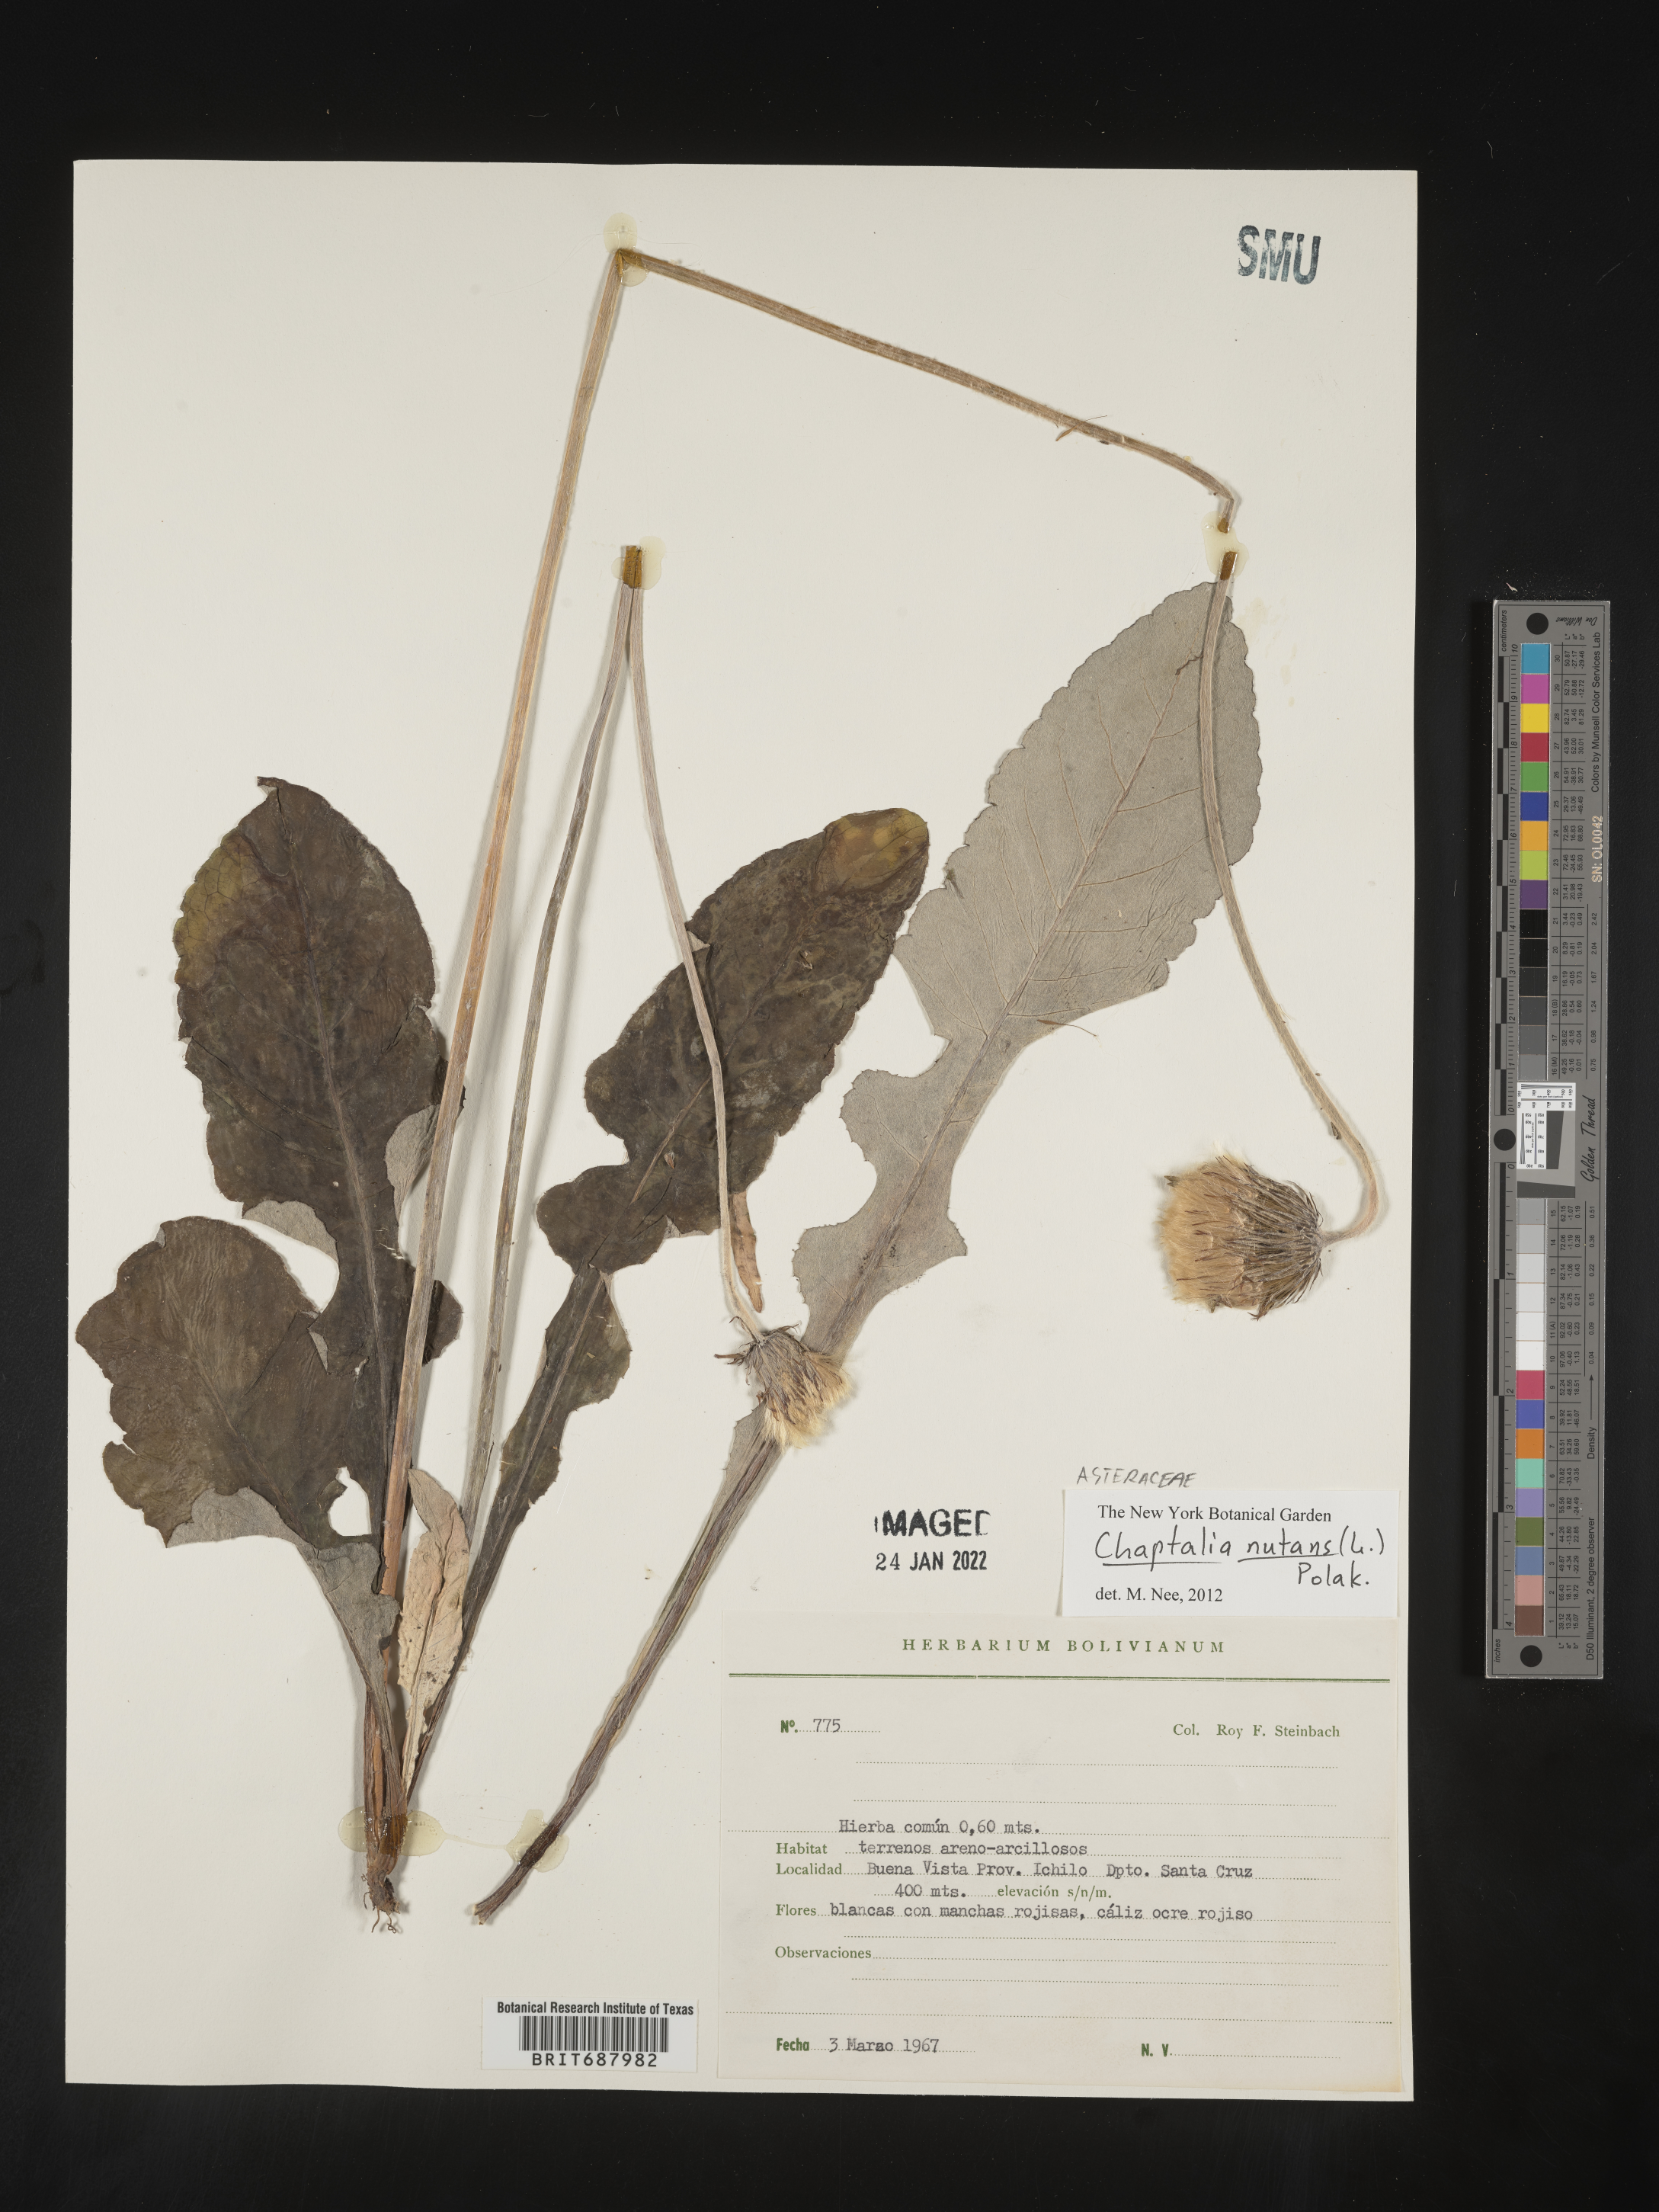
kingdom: Plantae
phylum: Tracheophyta
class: Magnoliopsida
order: Asterales
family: Asteraceae
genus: Chaptalia
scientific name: Chaptalia
